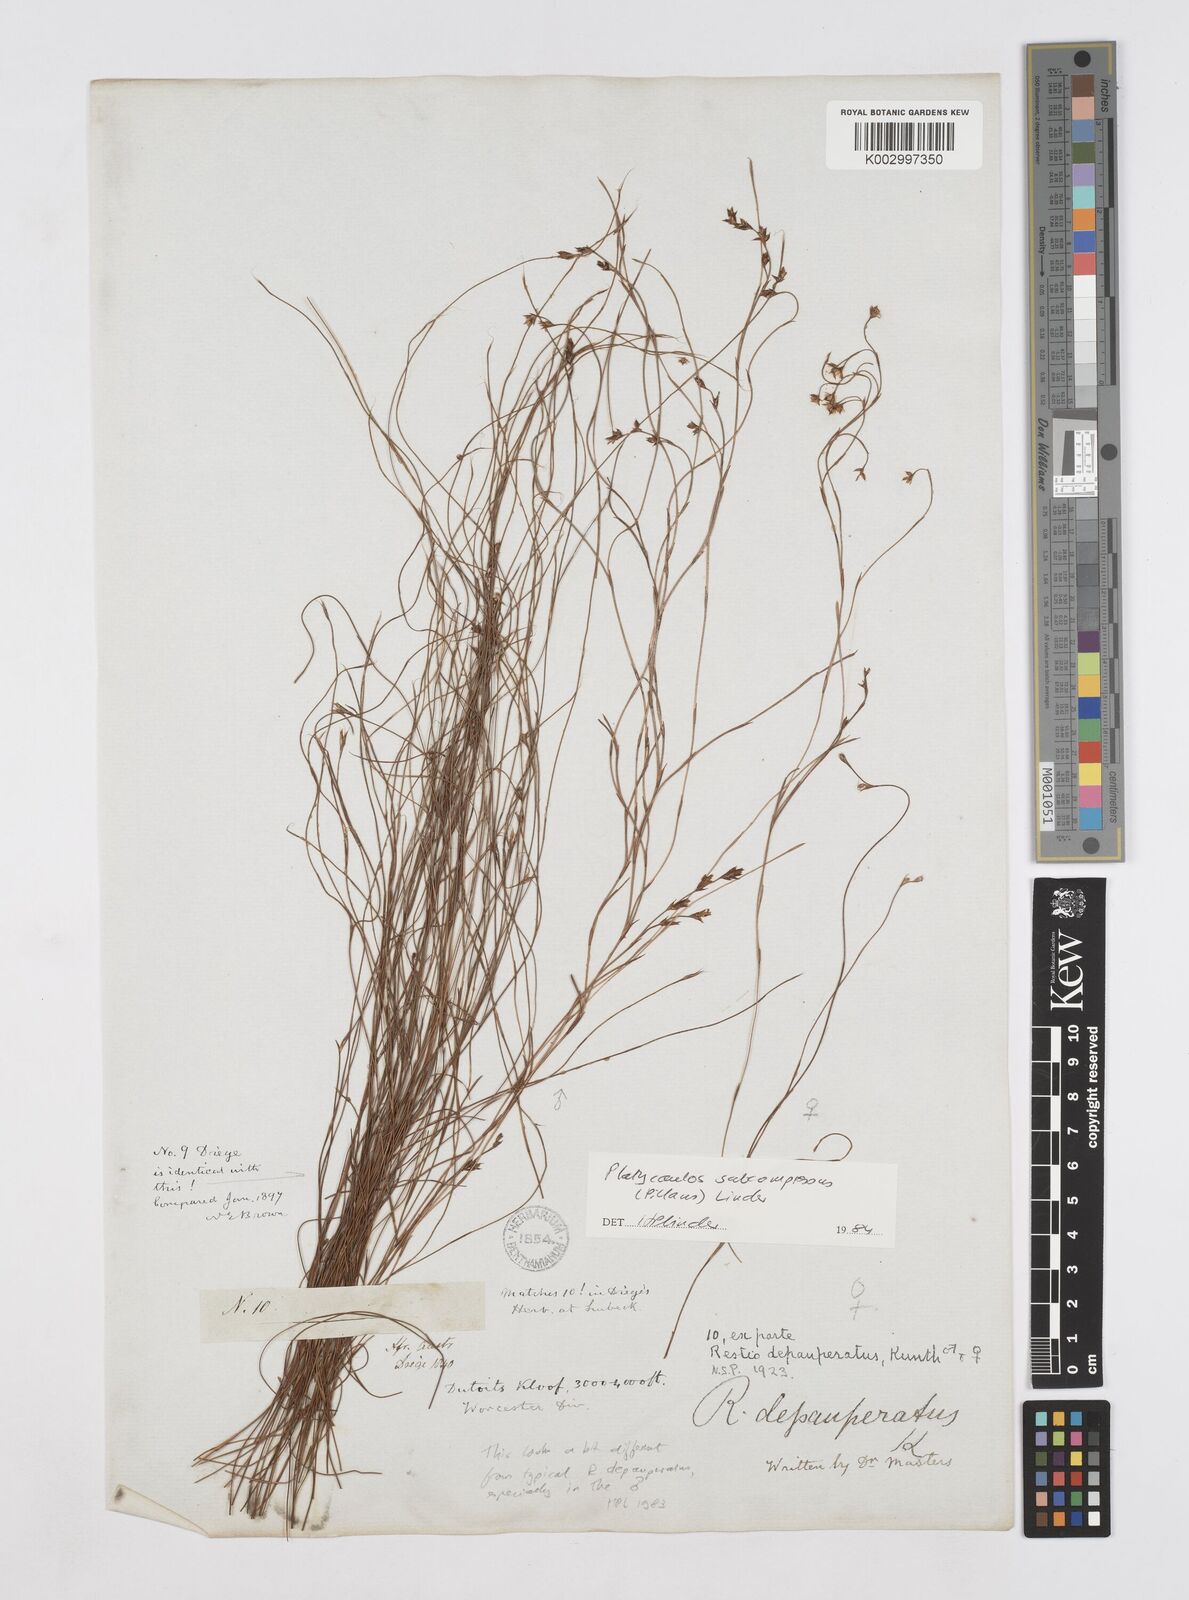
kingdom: Plantae
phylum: Tracheophyta
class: Liliopsida
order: Poales
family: Restionaceae
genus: Platycaulos
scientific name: Platycaulos subcompressus
